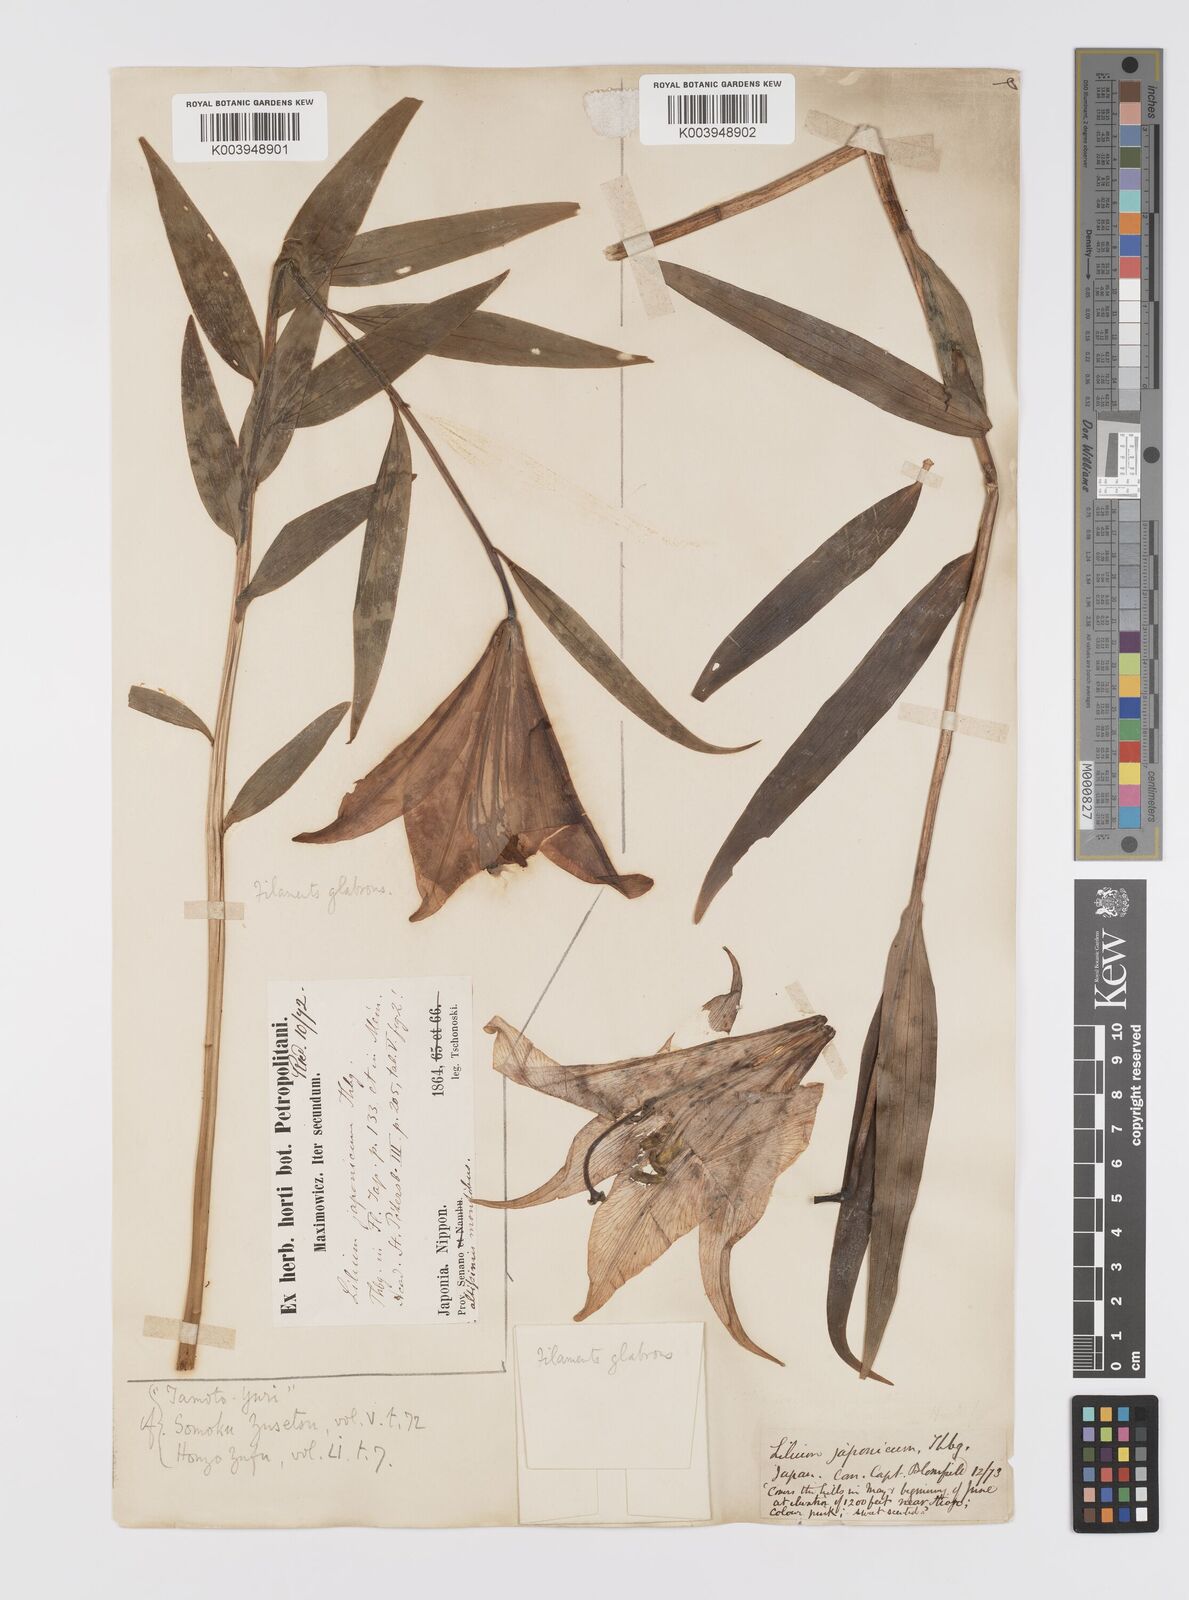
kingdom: Plantae
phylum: Tracheophyta
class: Liliopsida
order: Liliales
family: Liliaceae
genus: Lilium
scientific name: Lilium japonicum
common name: Japanese lily
